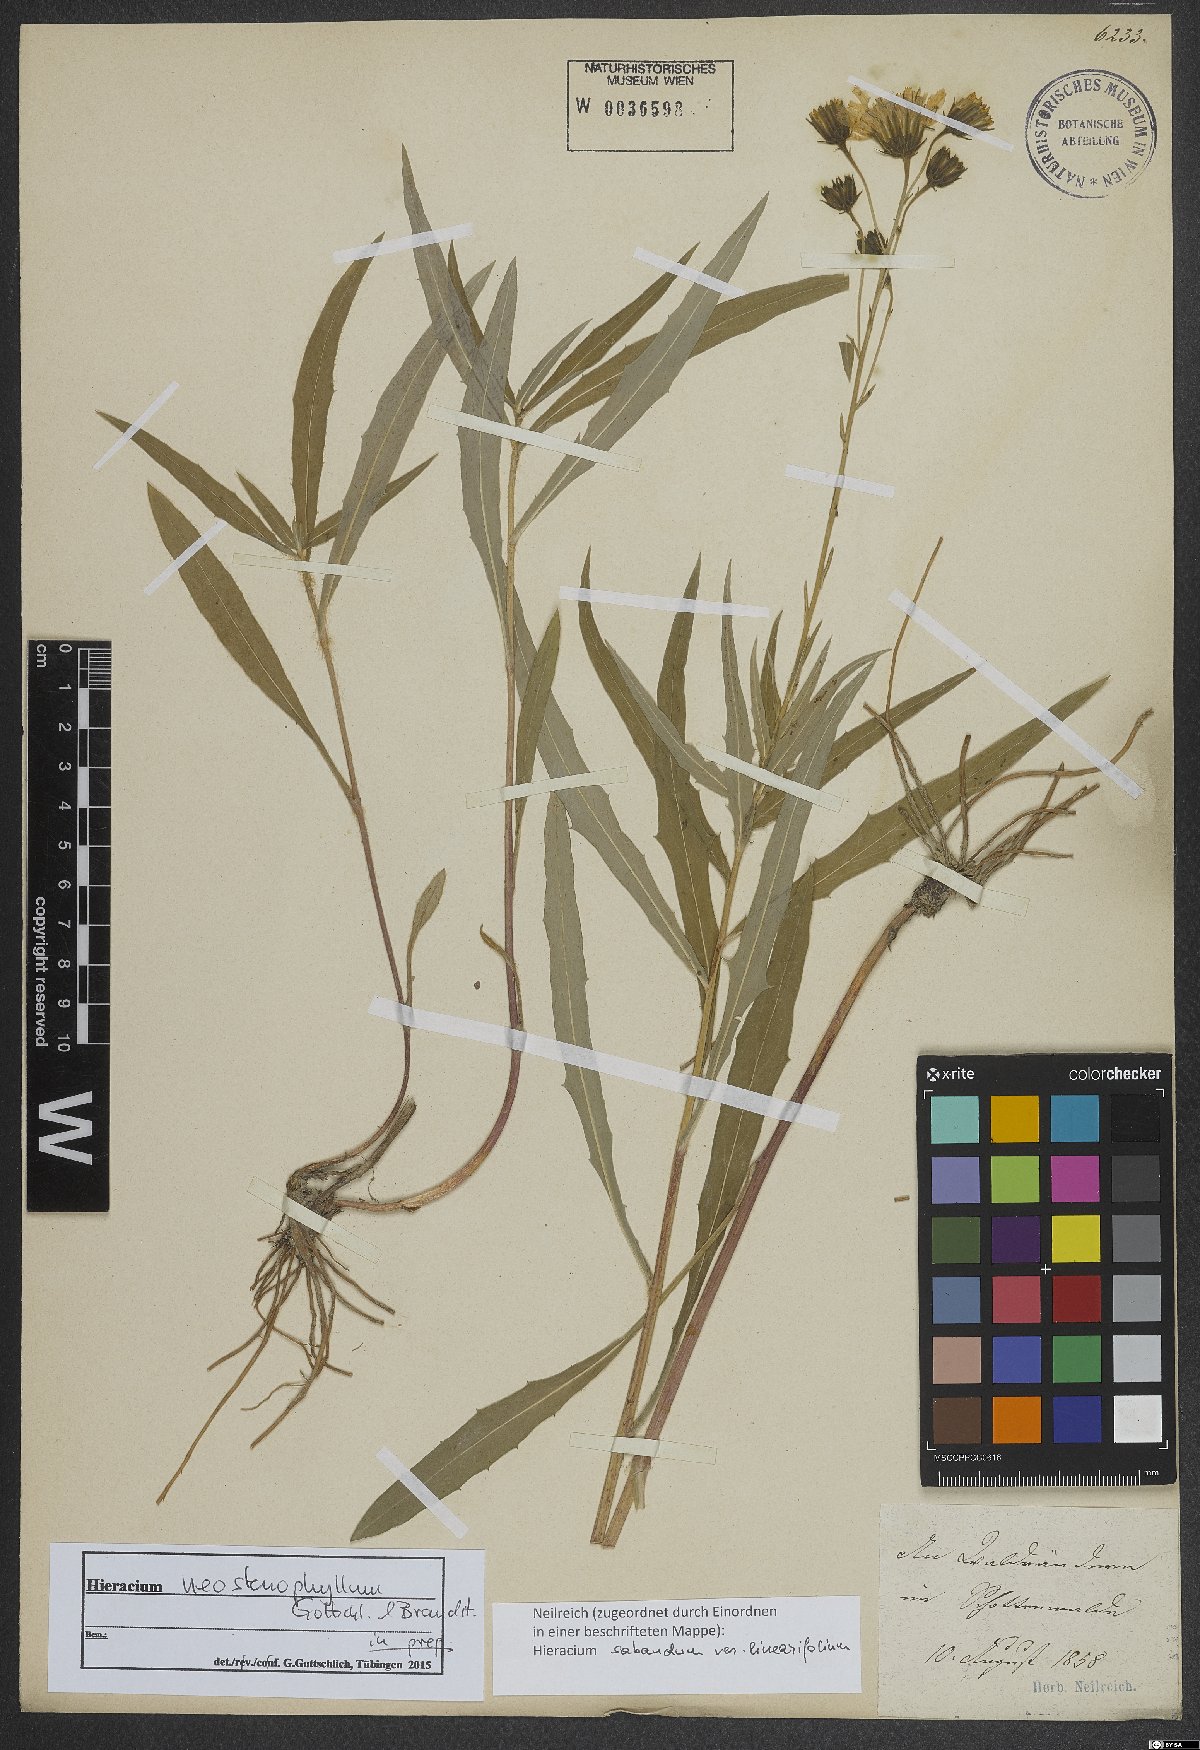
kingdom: Plantae
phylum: Tracheophyta
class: Magnoliopsida
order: Asterales
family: Asteraceae
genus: Hieracium
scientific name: Hieracium neostenophyllum
